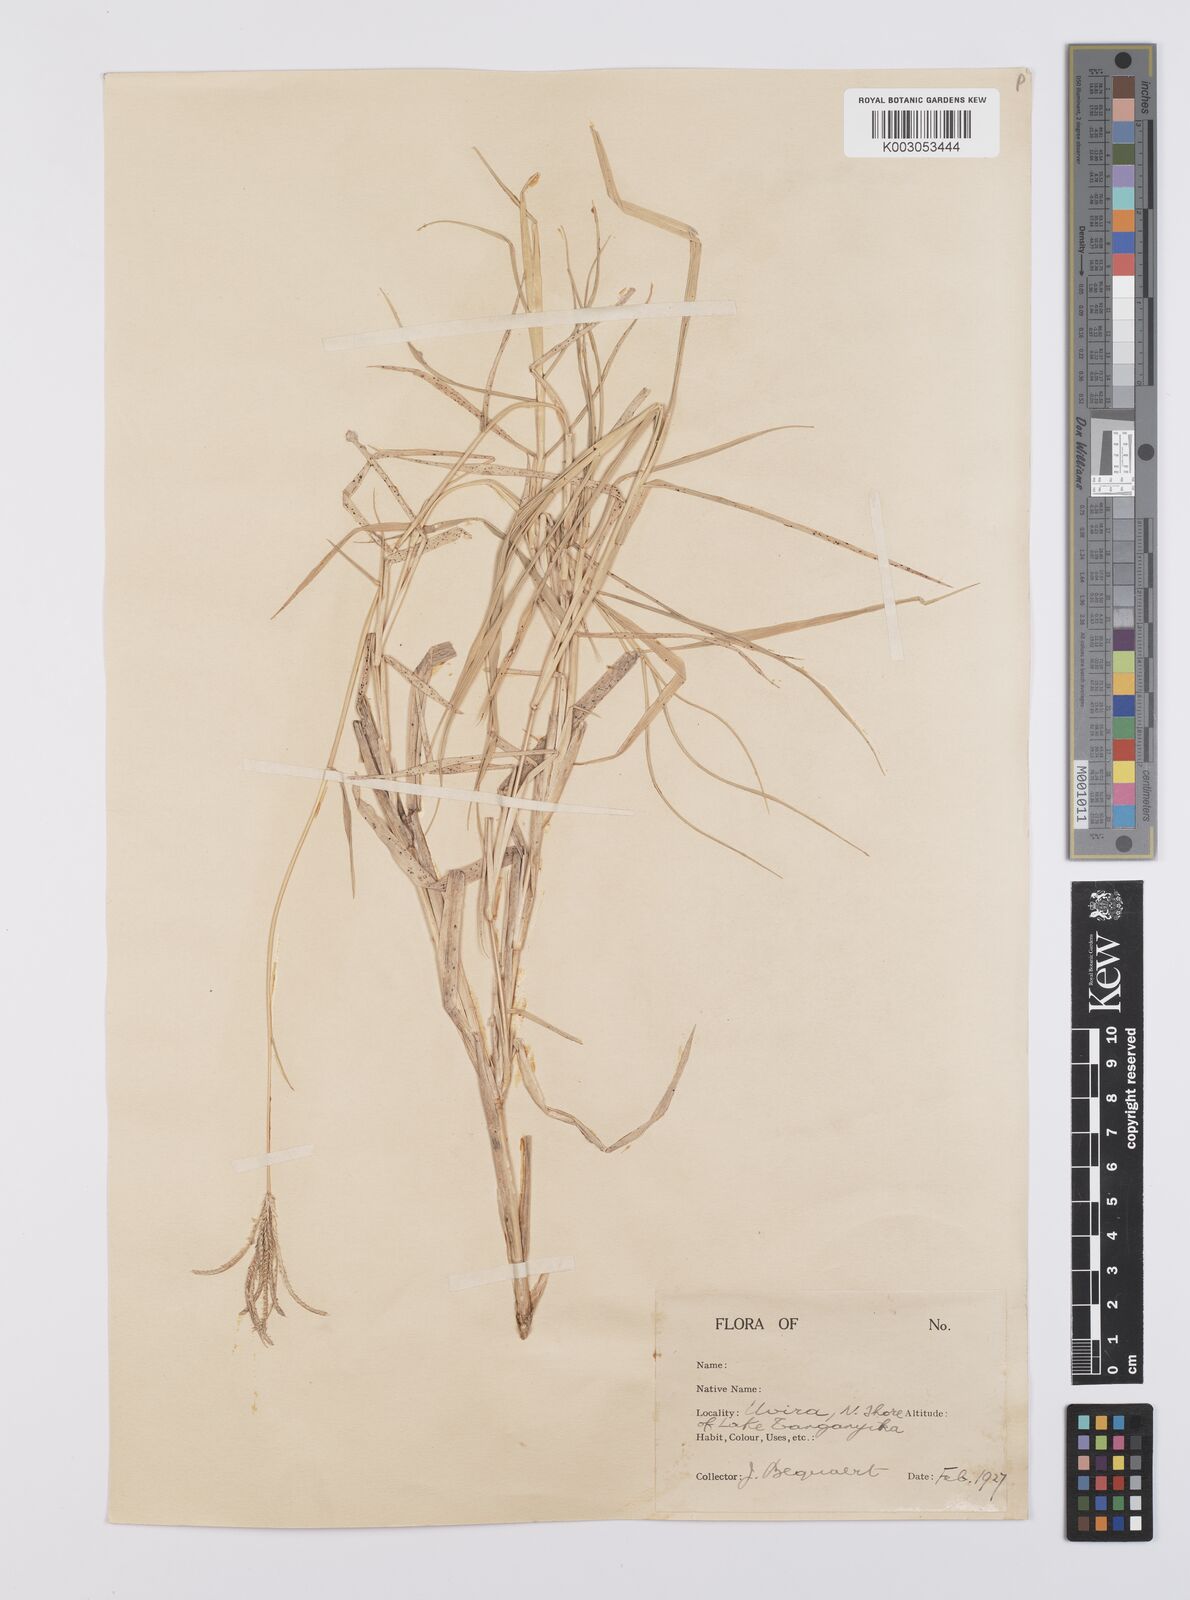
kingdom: Plantae
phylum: Tracheophyta
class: Liliopsida
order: Poales
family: Poaceae
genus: Cynodon
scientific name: Cynodon aethiopicus
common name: Ethiopian dogstooth grass
